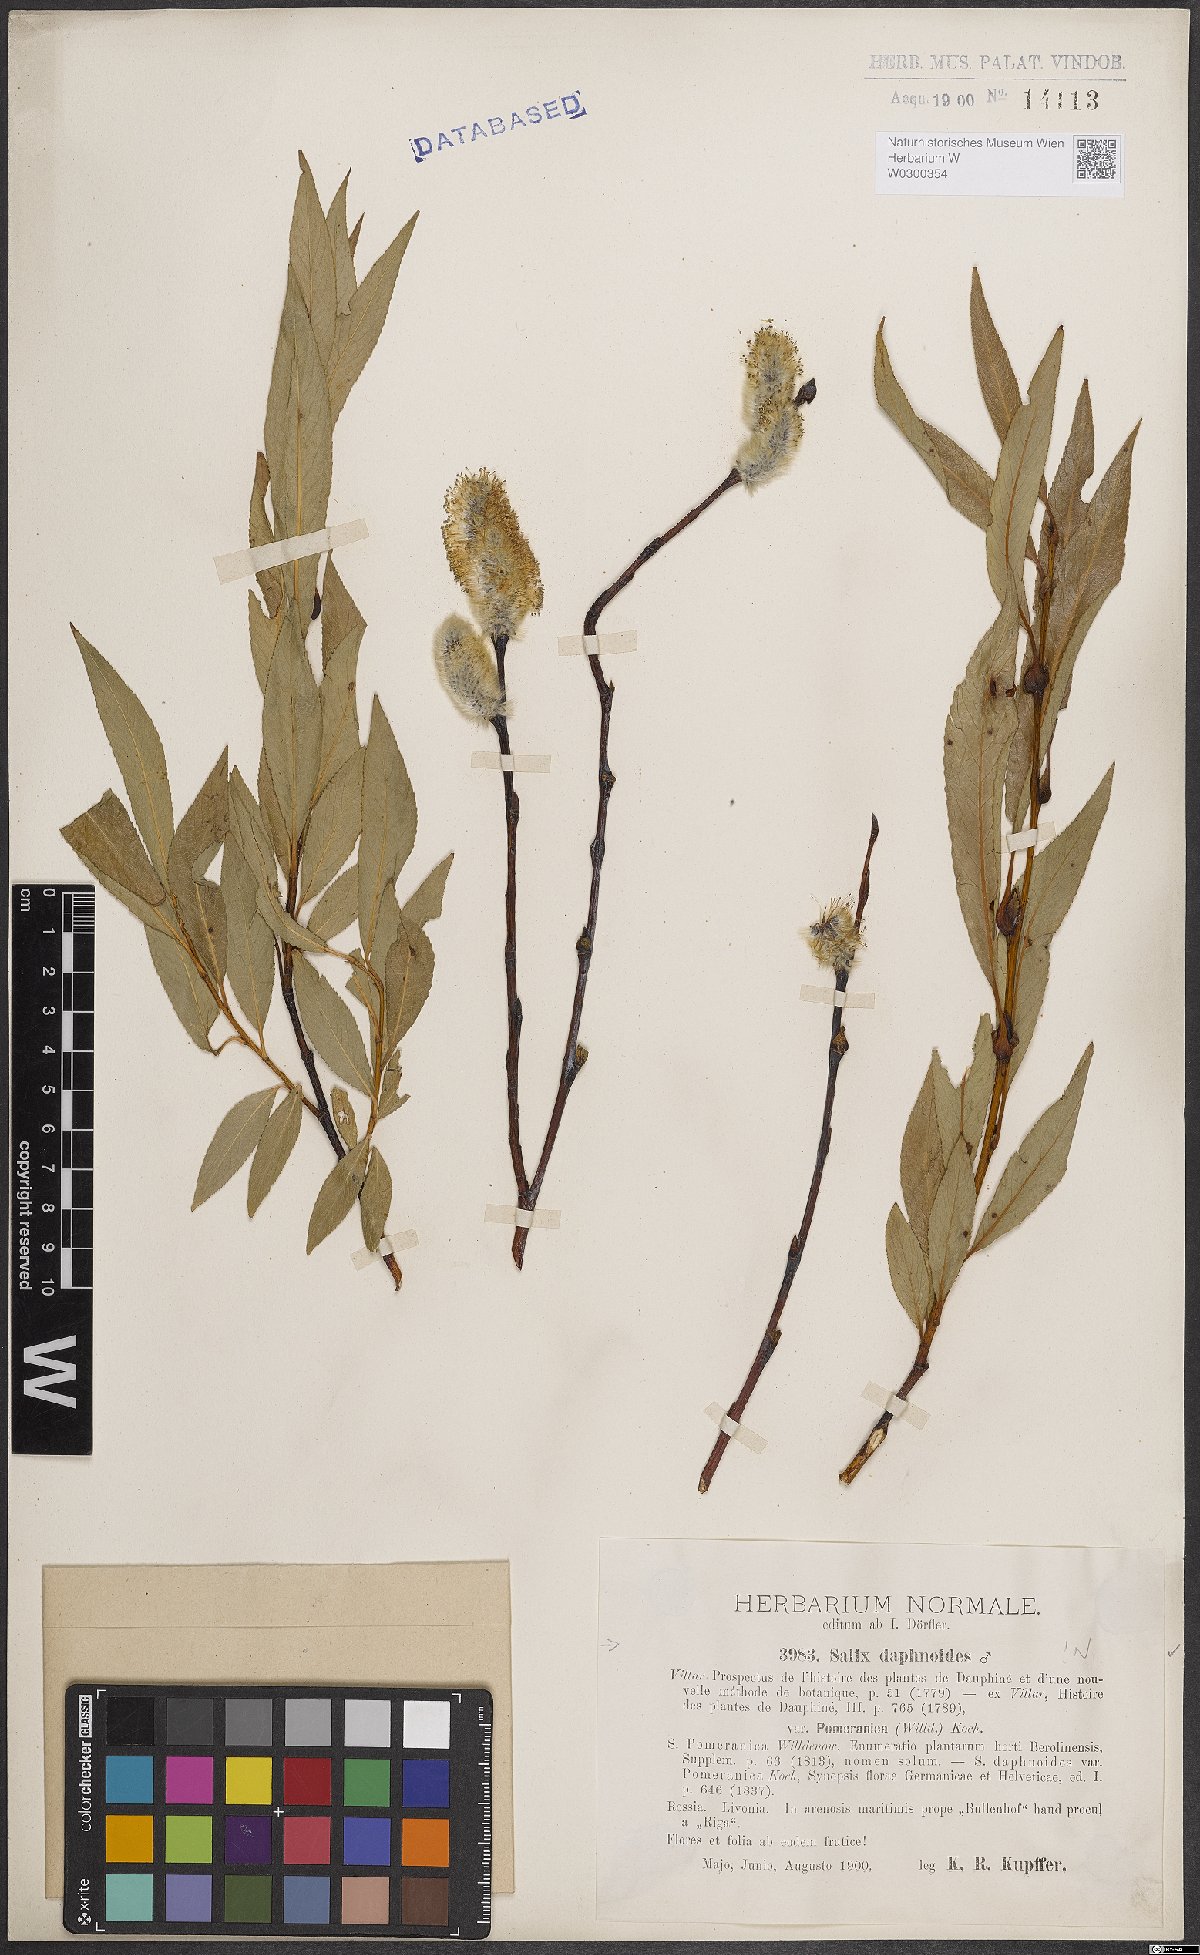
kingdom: Plantae
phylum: Tracheophyta
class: Magnoliopsida
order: Malpighiales
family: Salicaceae
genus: Salix
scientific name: Salix daphnoides
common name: European violet-willow
